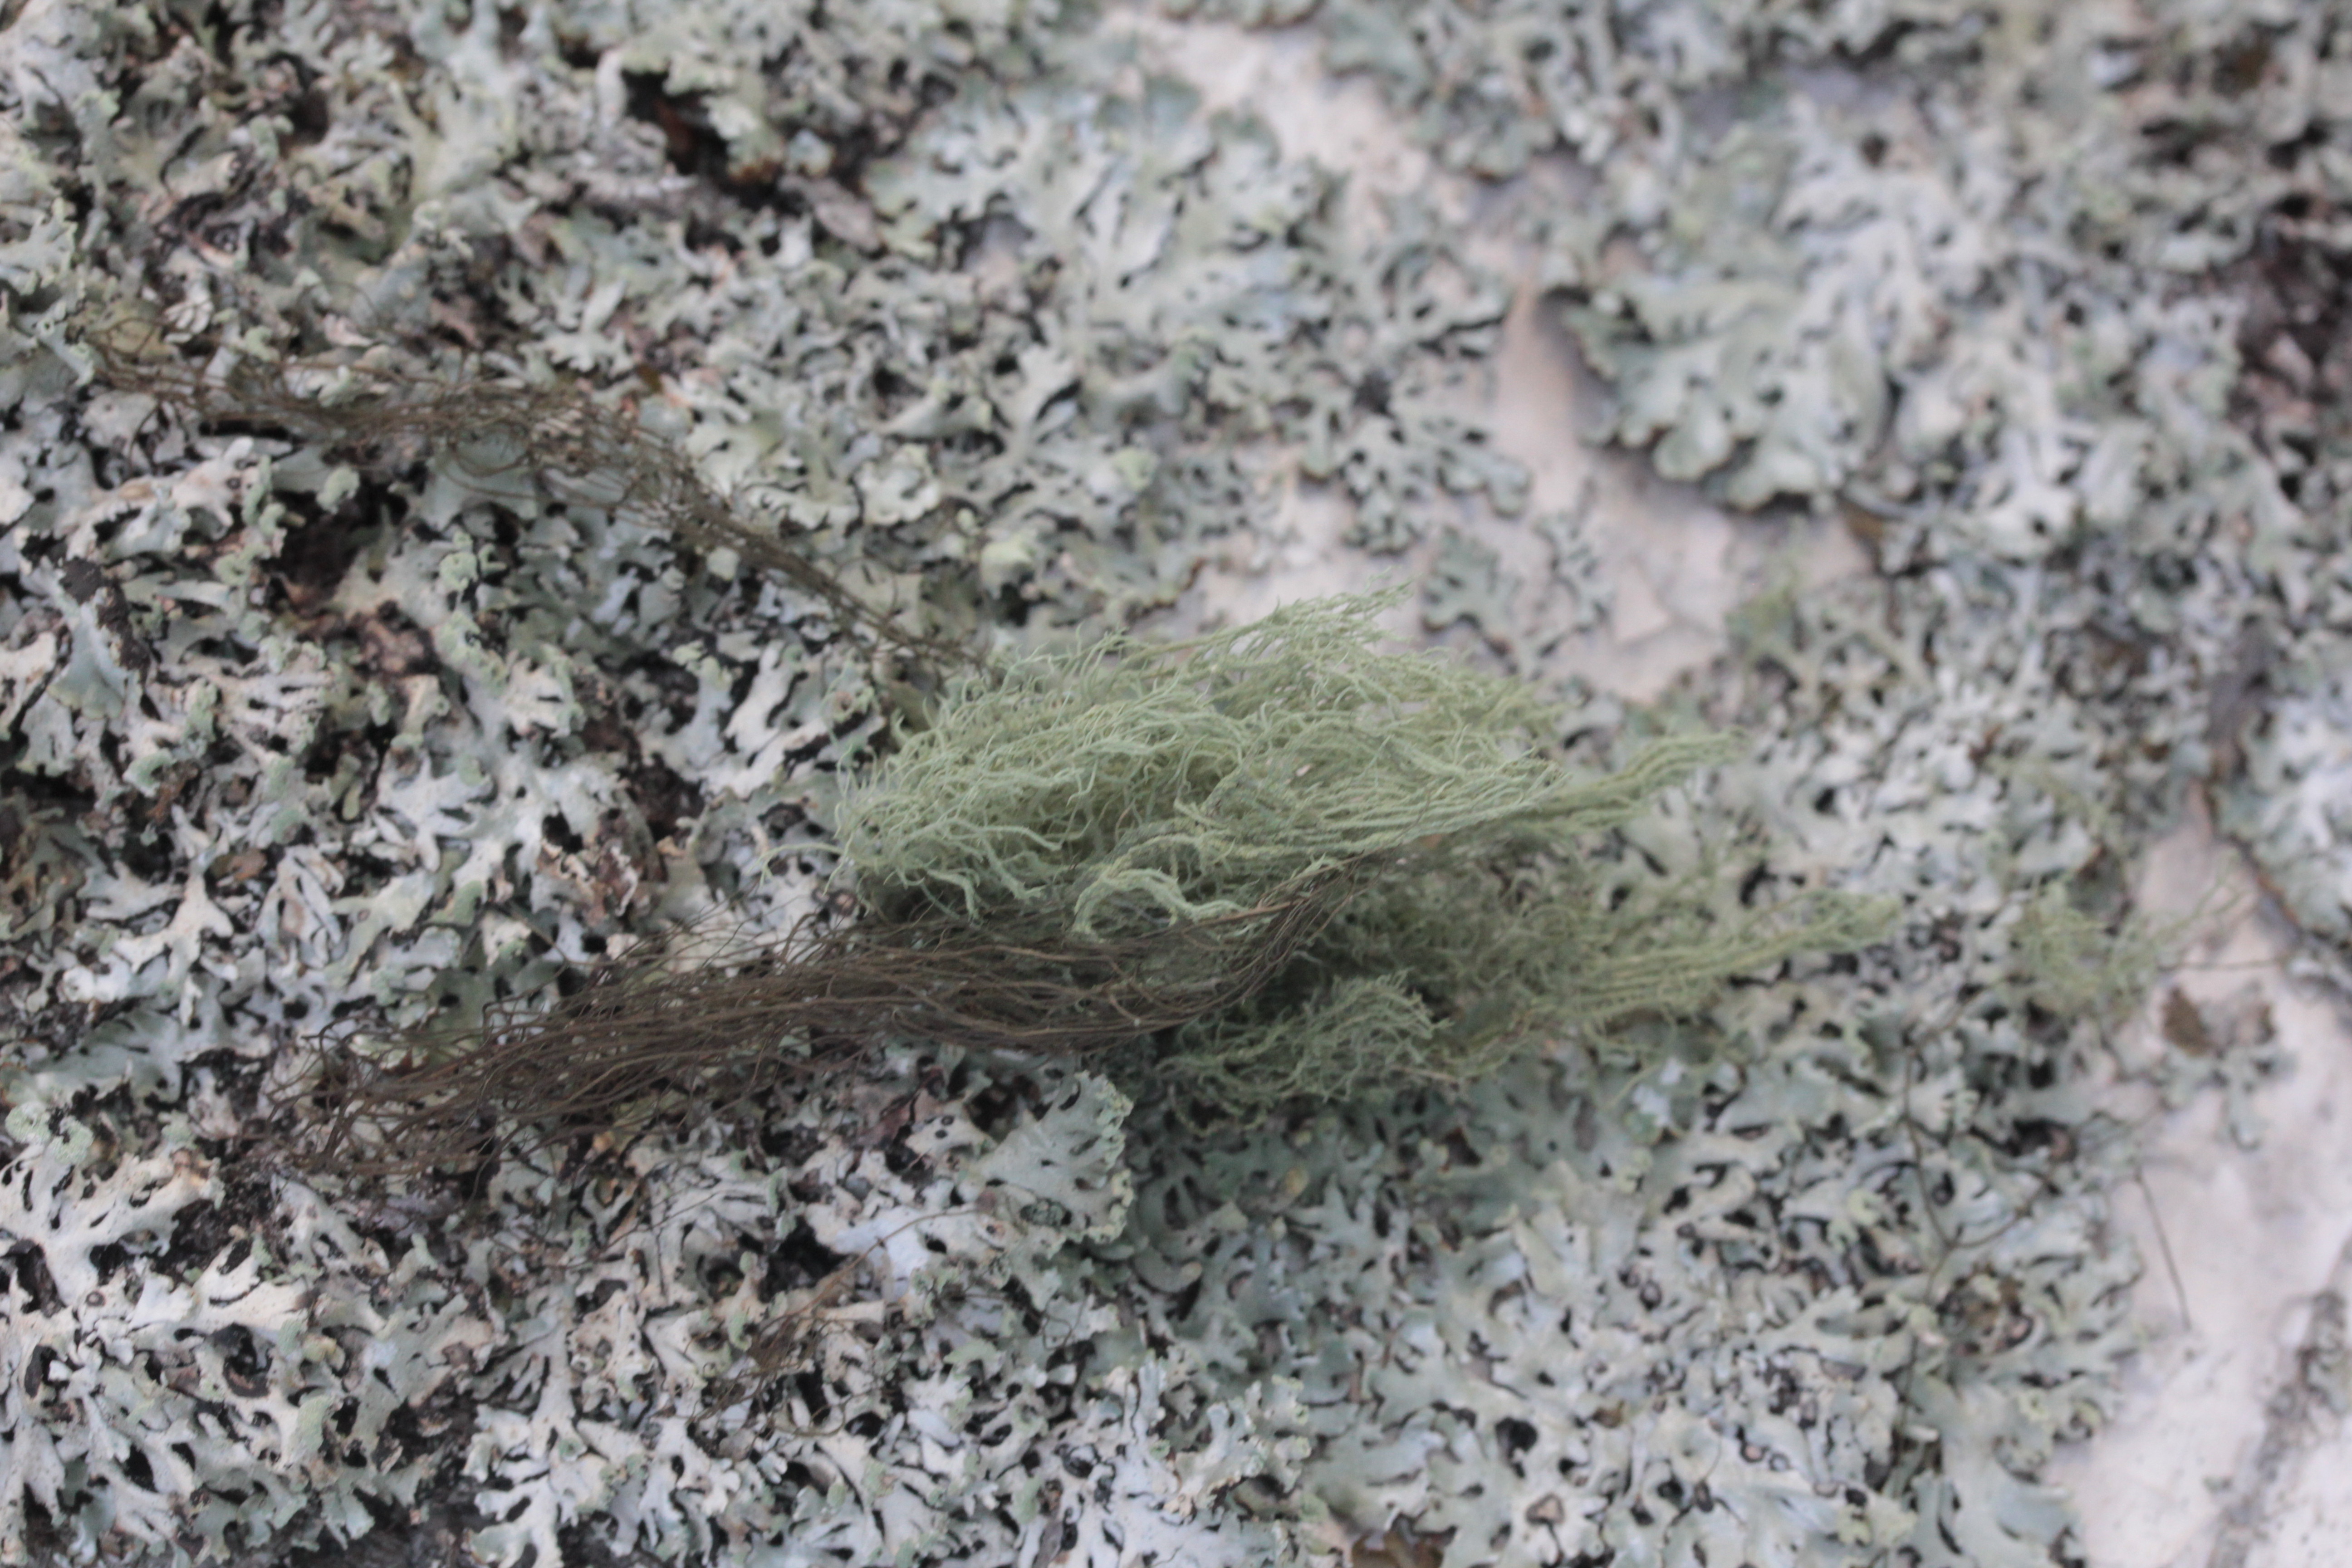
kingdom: Fungi
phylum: Ascomycota
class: Lecanoromycetes
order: Lecanorales
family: Parmeliaceae
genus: Usnea
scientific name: Usnea hirta
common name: Bristly beard lichen
